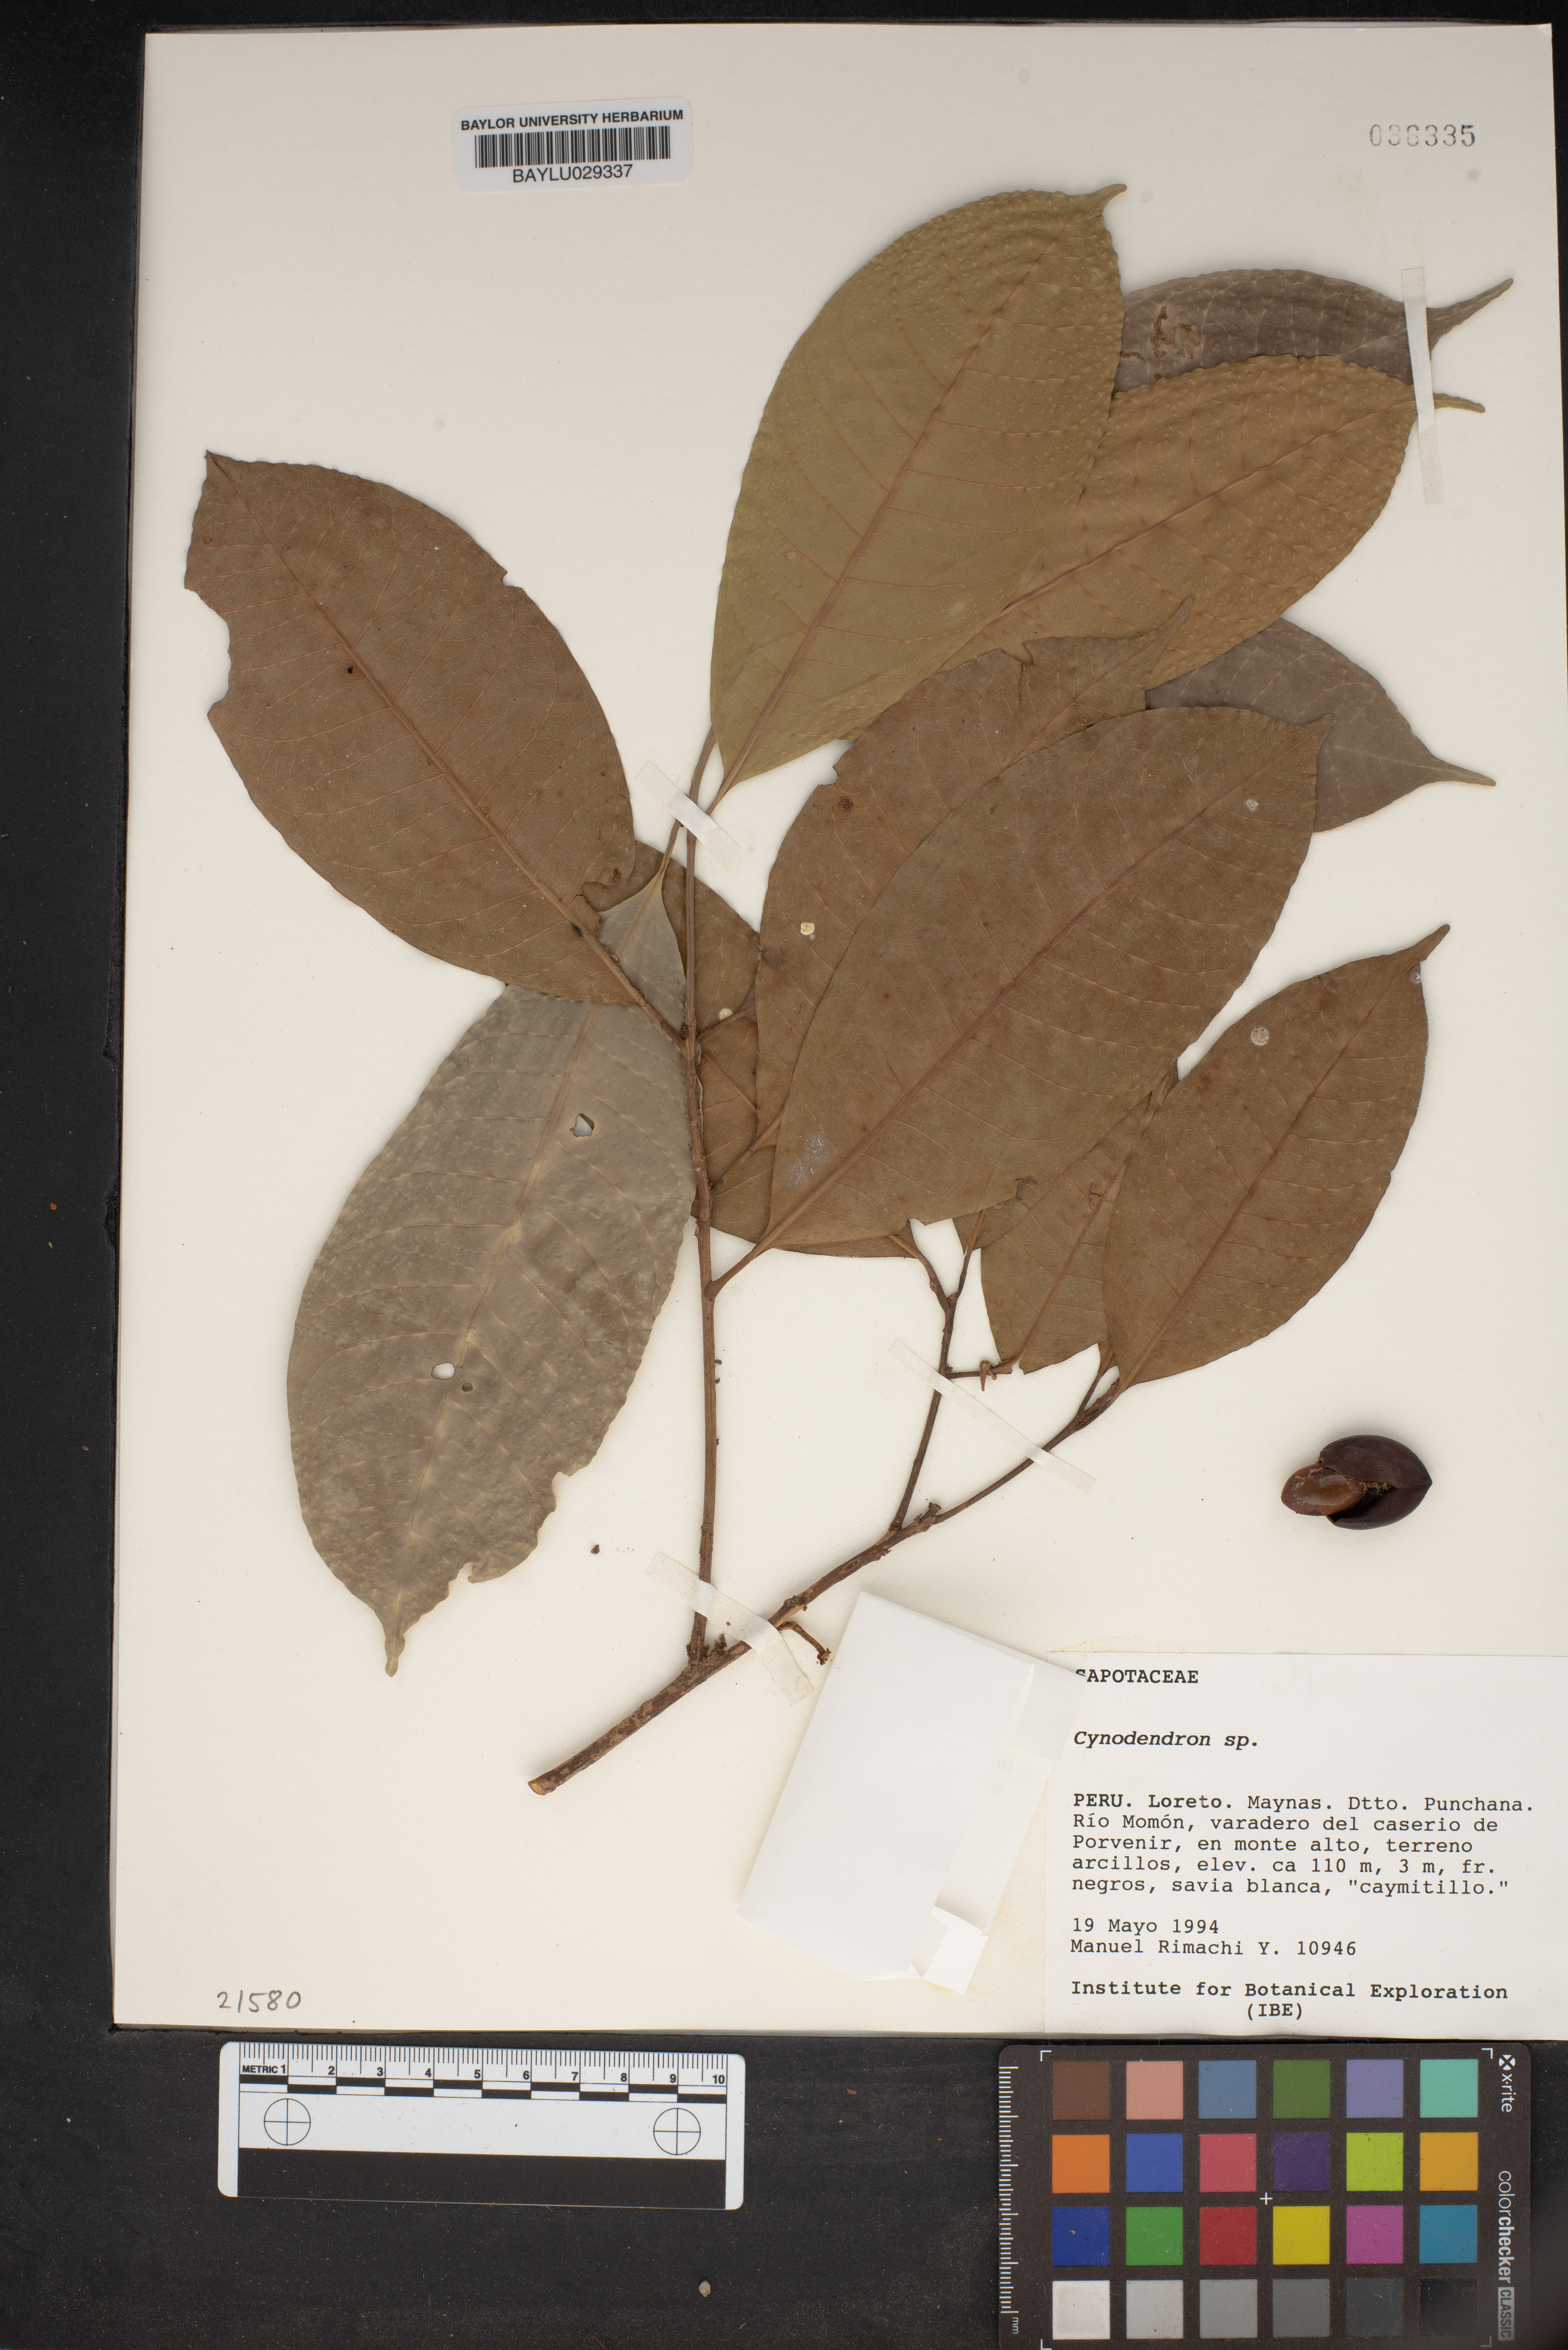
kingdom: Plantae
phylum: Tracheophyta
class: Magnoliopsida
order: Ericales
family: Sapotaceae
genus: Chrysophyllum
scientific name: Chrysophyllum
